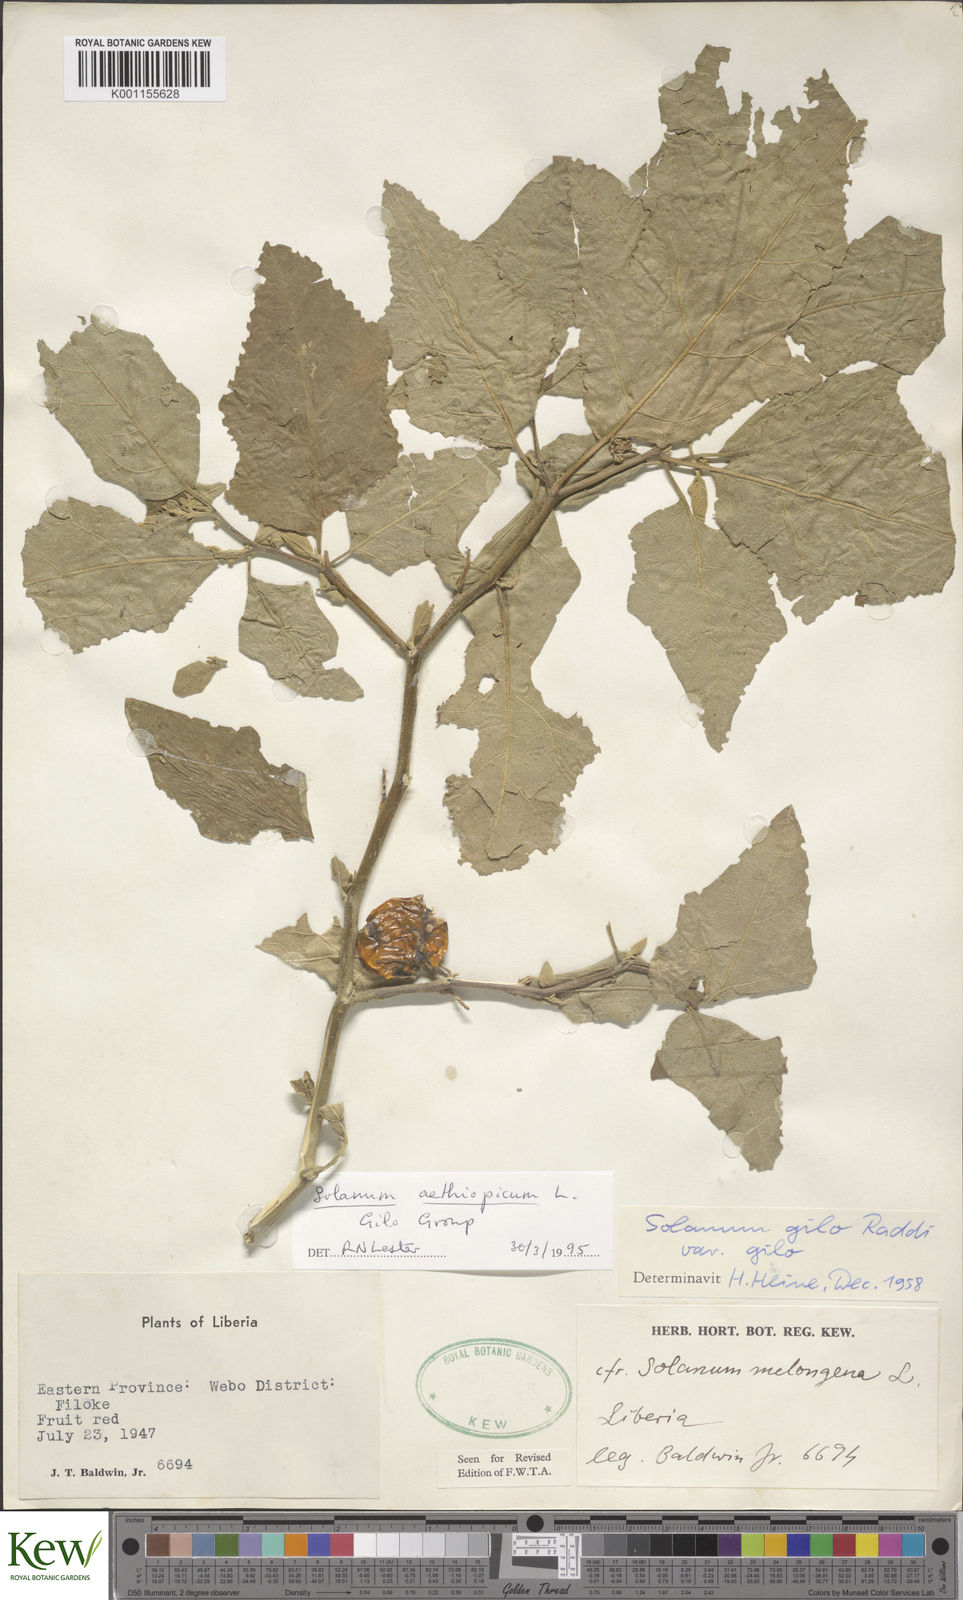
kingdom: Plantae
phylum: Tracheophyta
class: Magnoliopsida
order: Solanales
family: Solanaceae
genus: Solanum
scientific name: Solanum aethiopicum
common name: Gilo
